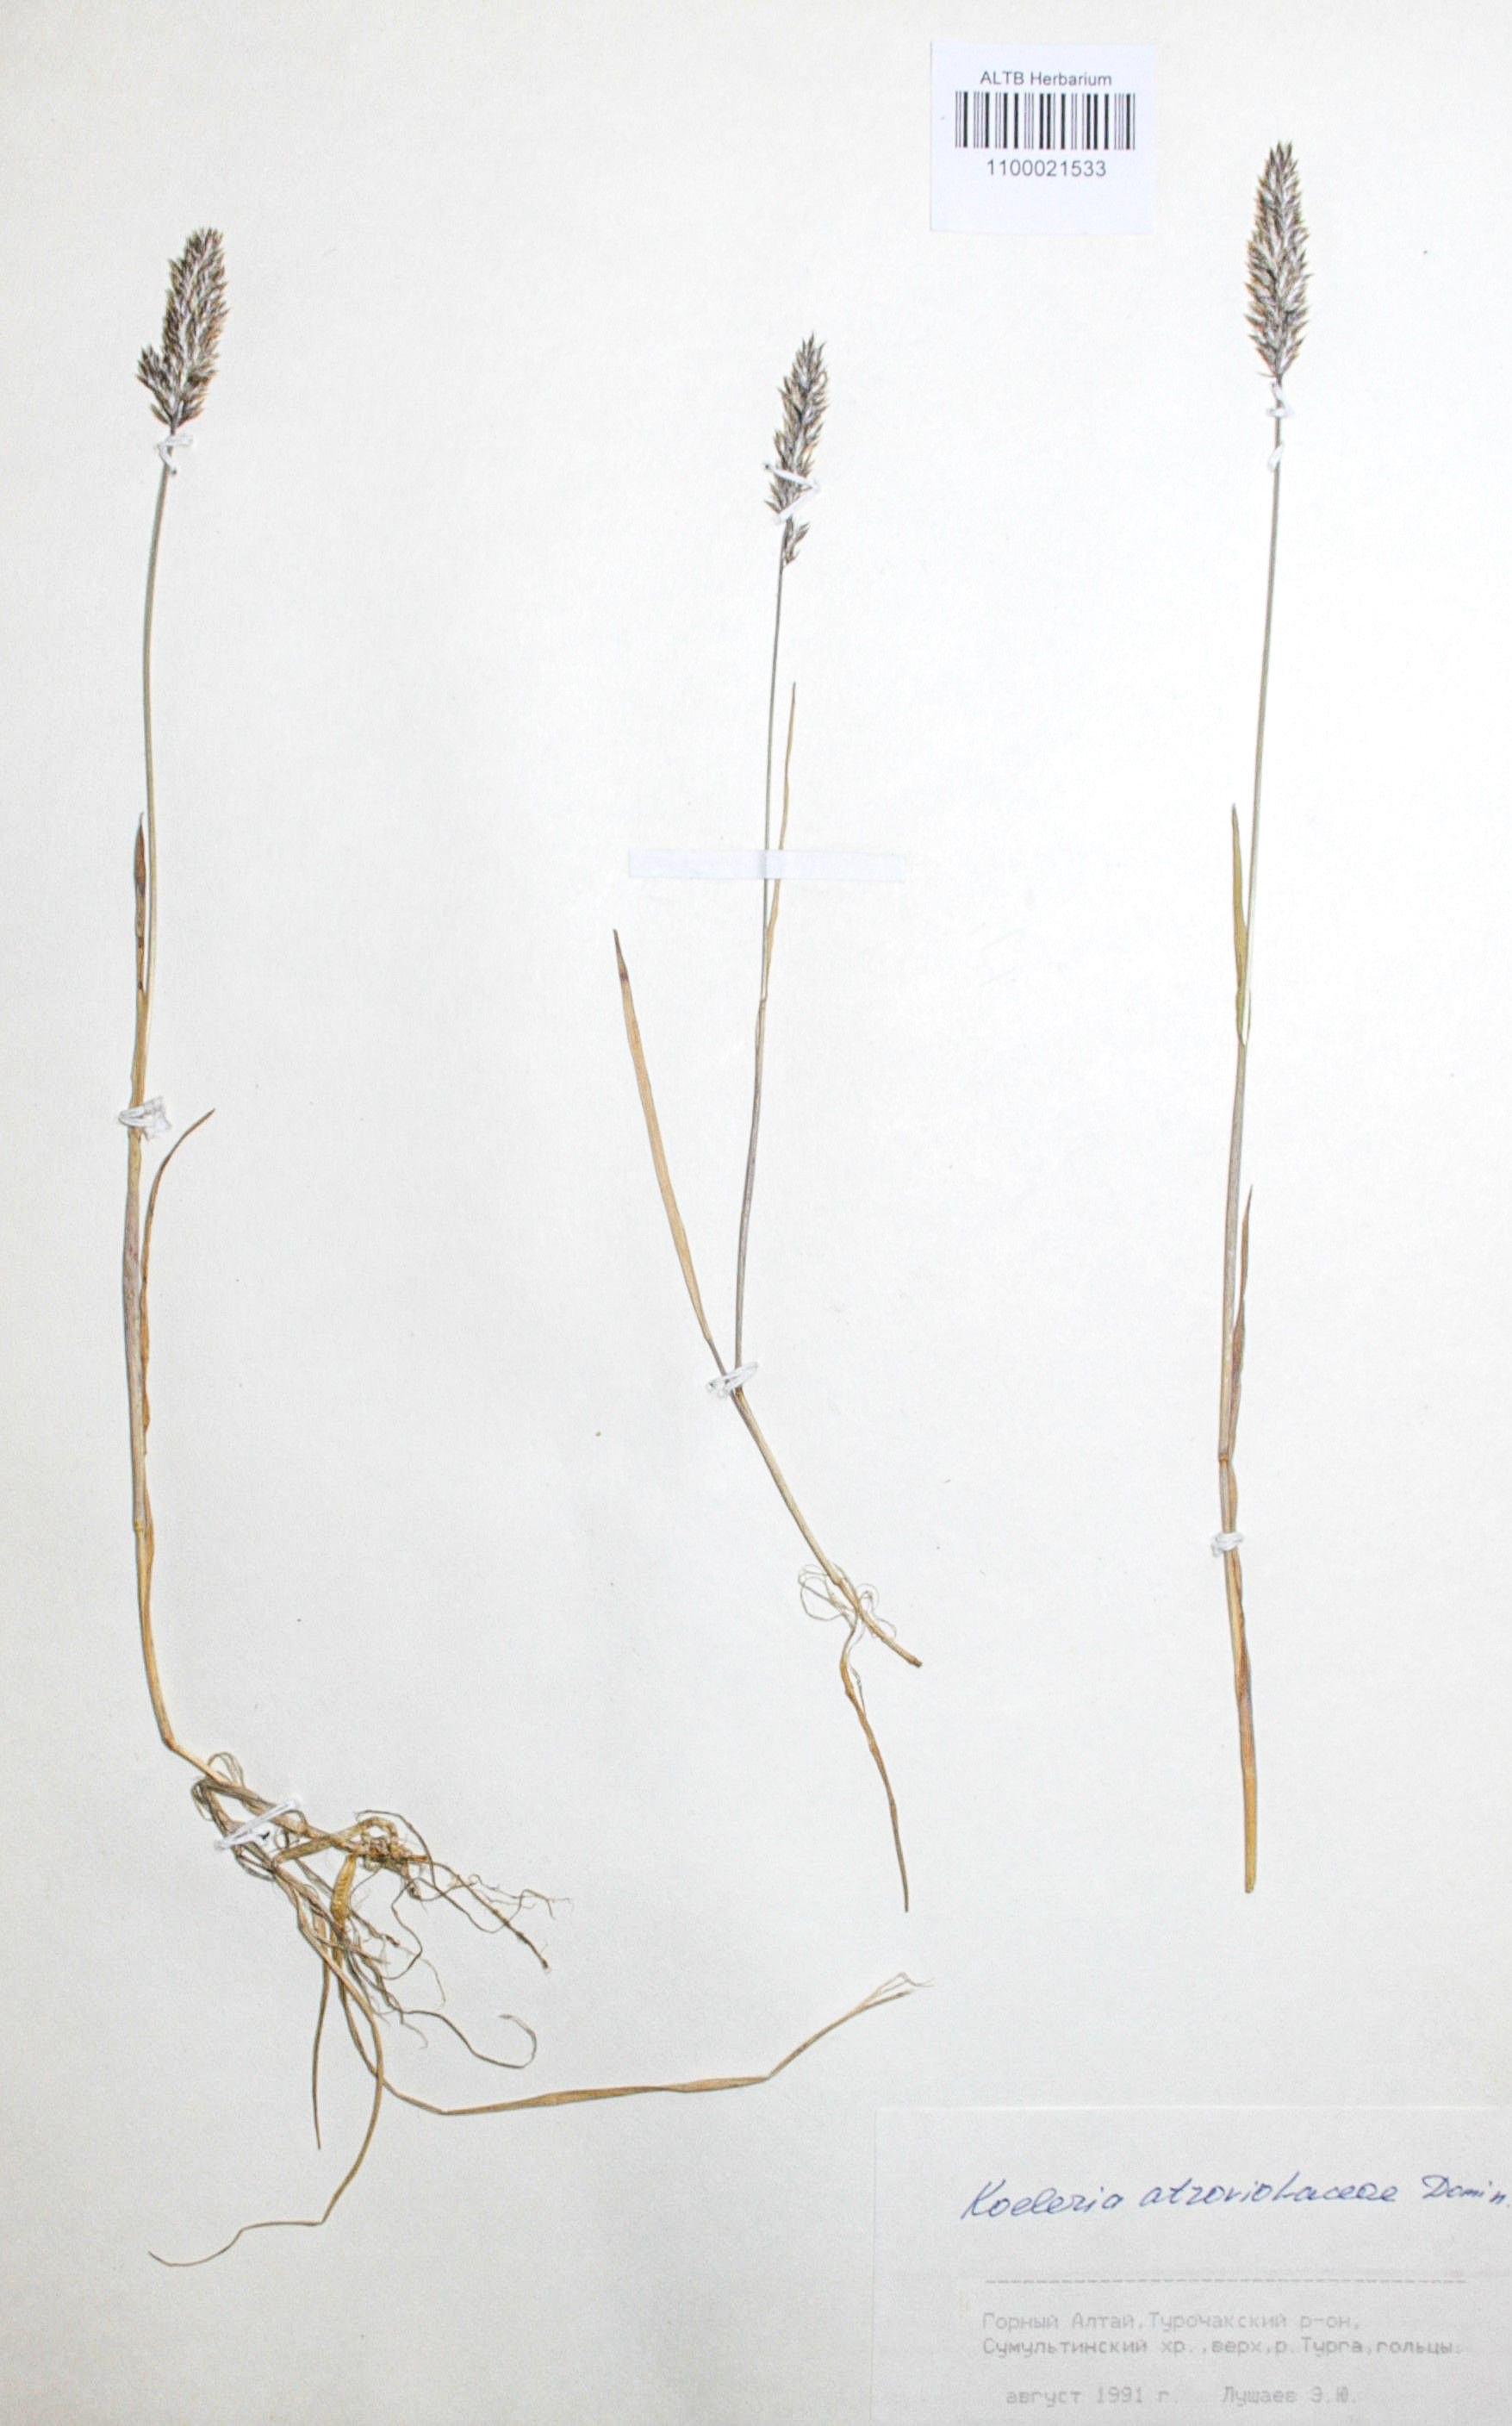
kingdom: Plantae
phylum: Tracheophyta
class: Liliopsida
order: Poales
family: Poaceae
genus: Koeleria
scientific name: Koeleria asiatica
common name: Eurasian junegrass
